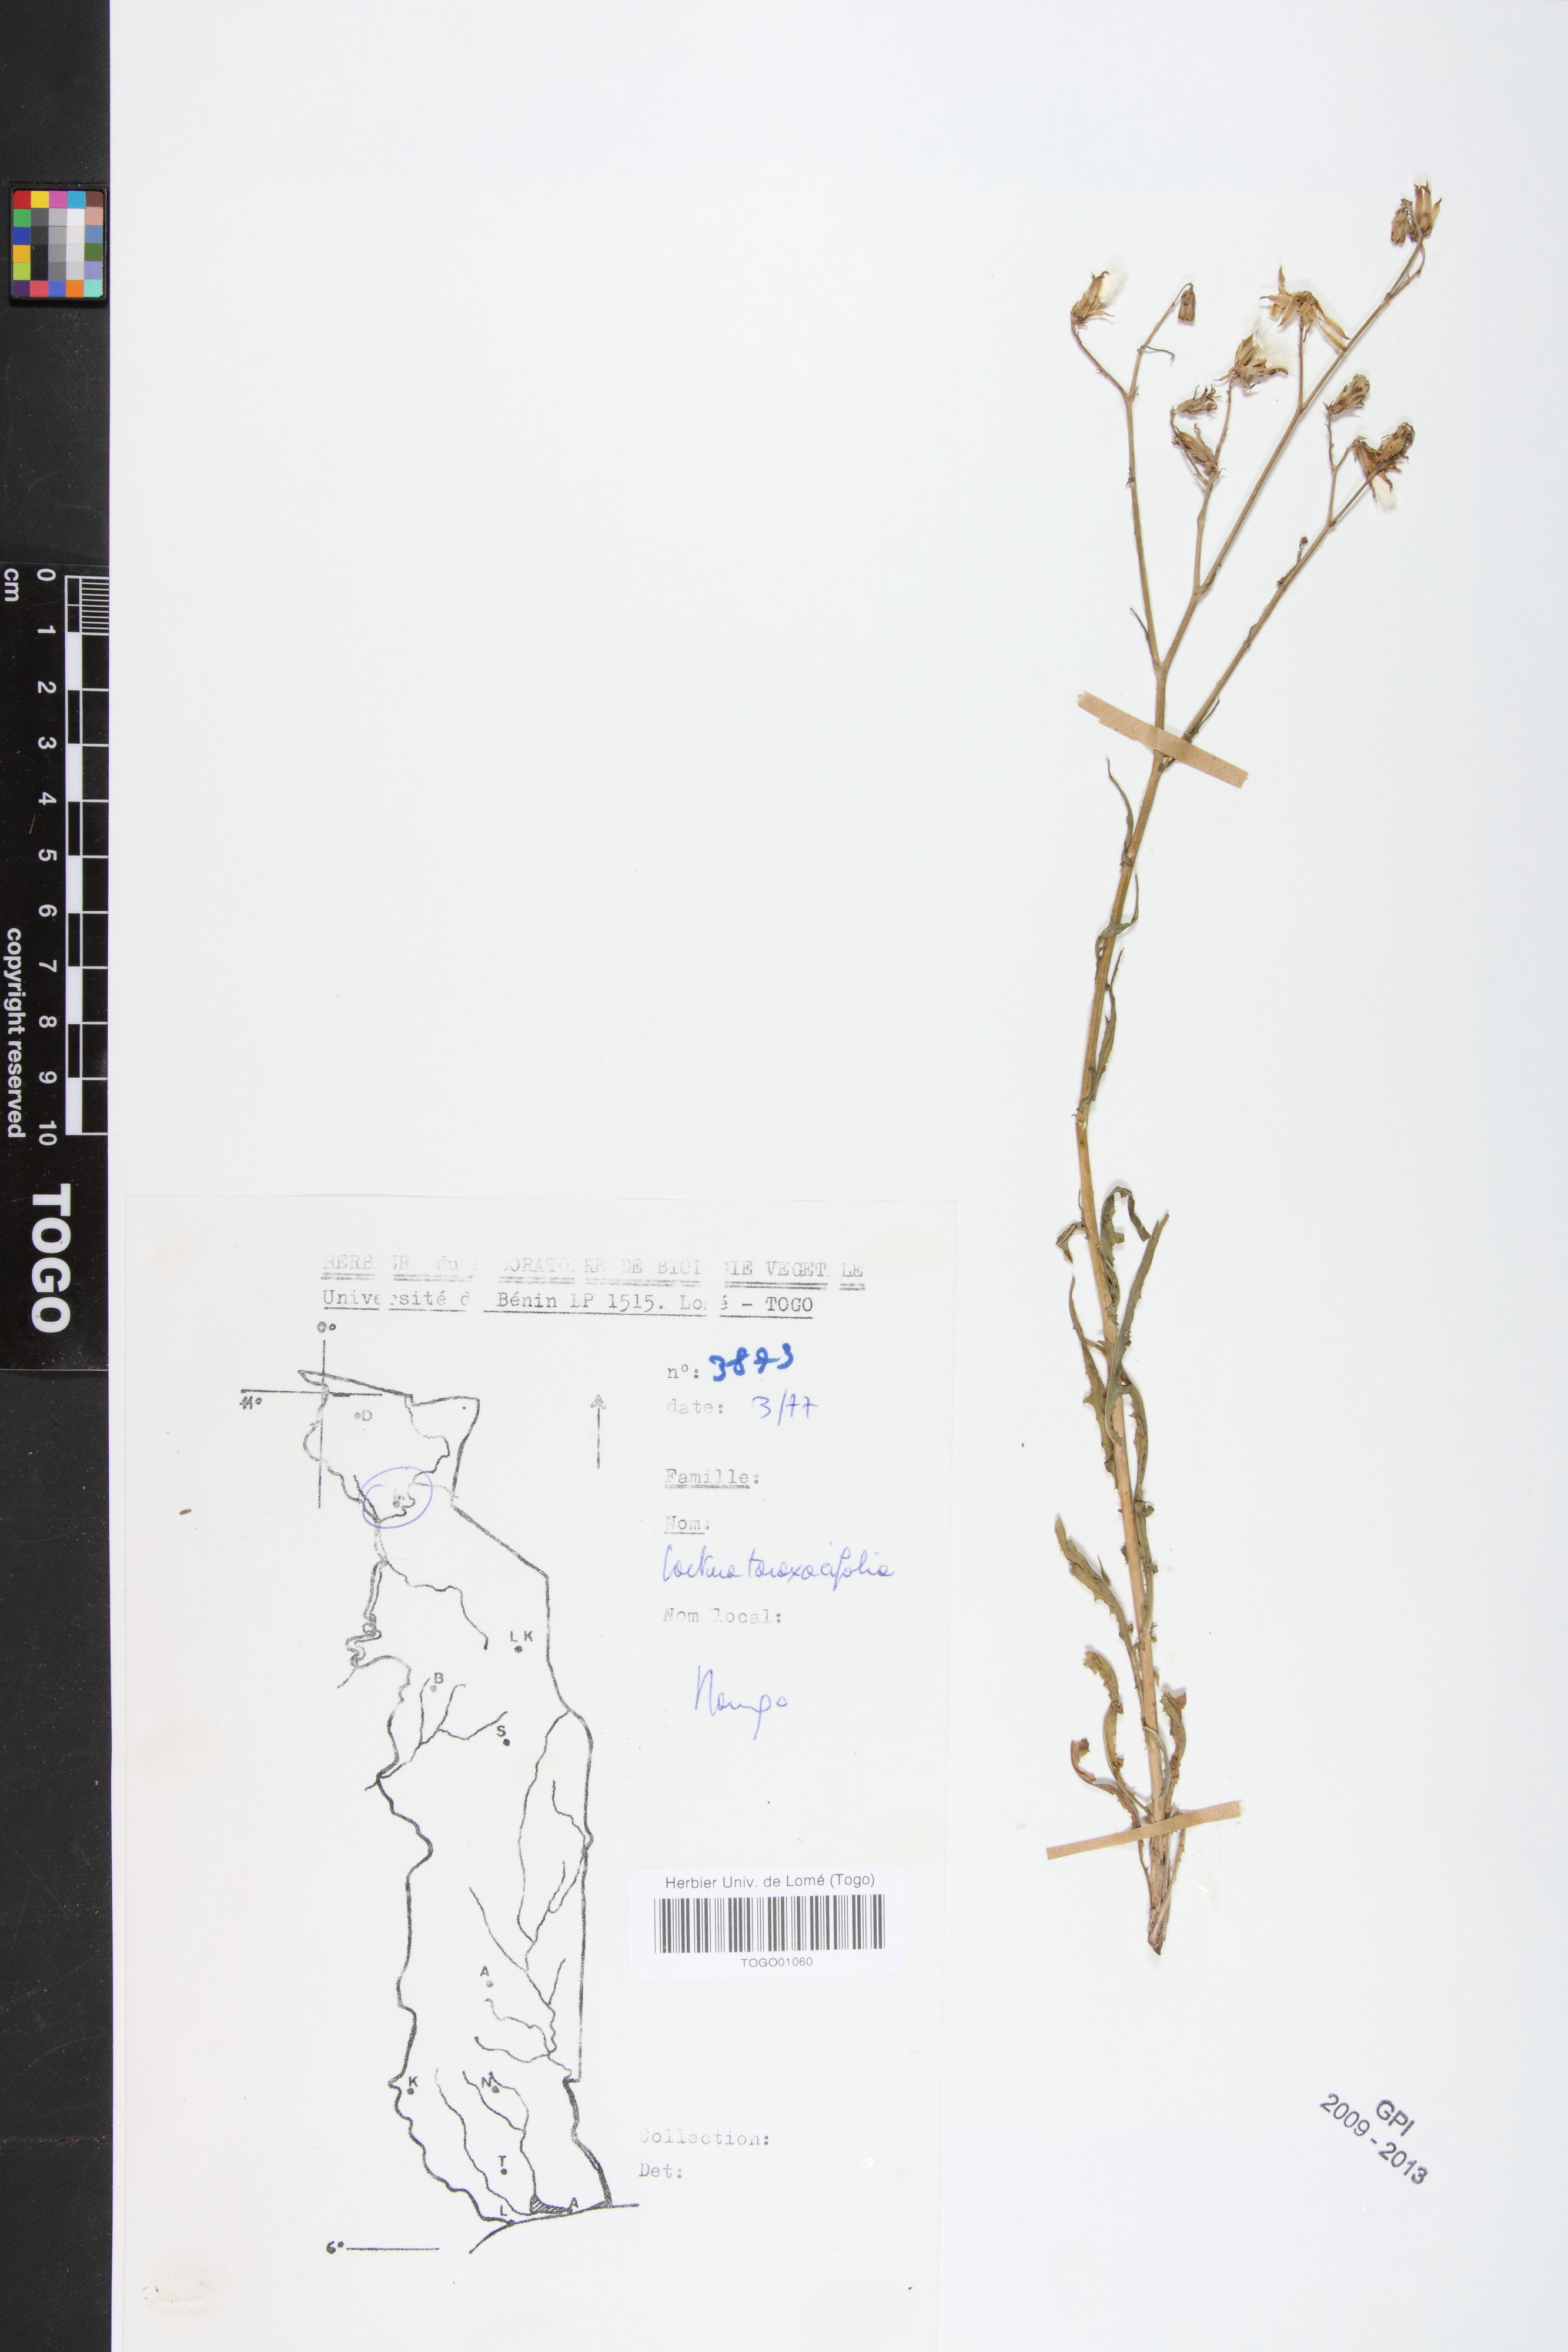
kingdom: Plantae
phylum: Tracheophyta
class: Magnoliopsida
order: Asterales
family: Asteraceae
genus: Launaea
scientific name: Launaea taraxacifolia
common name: African-lettuce
